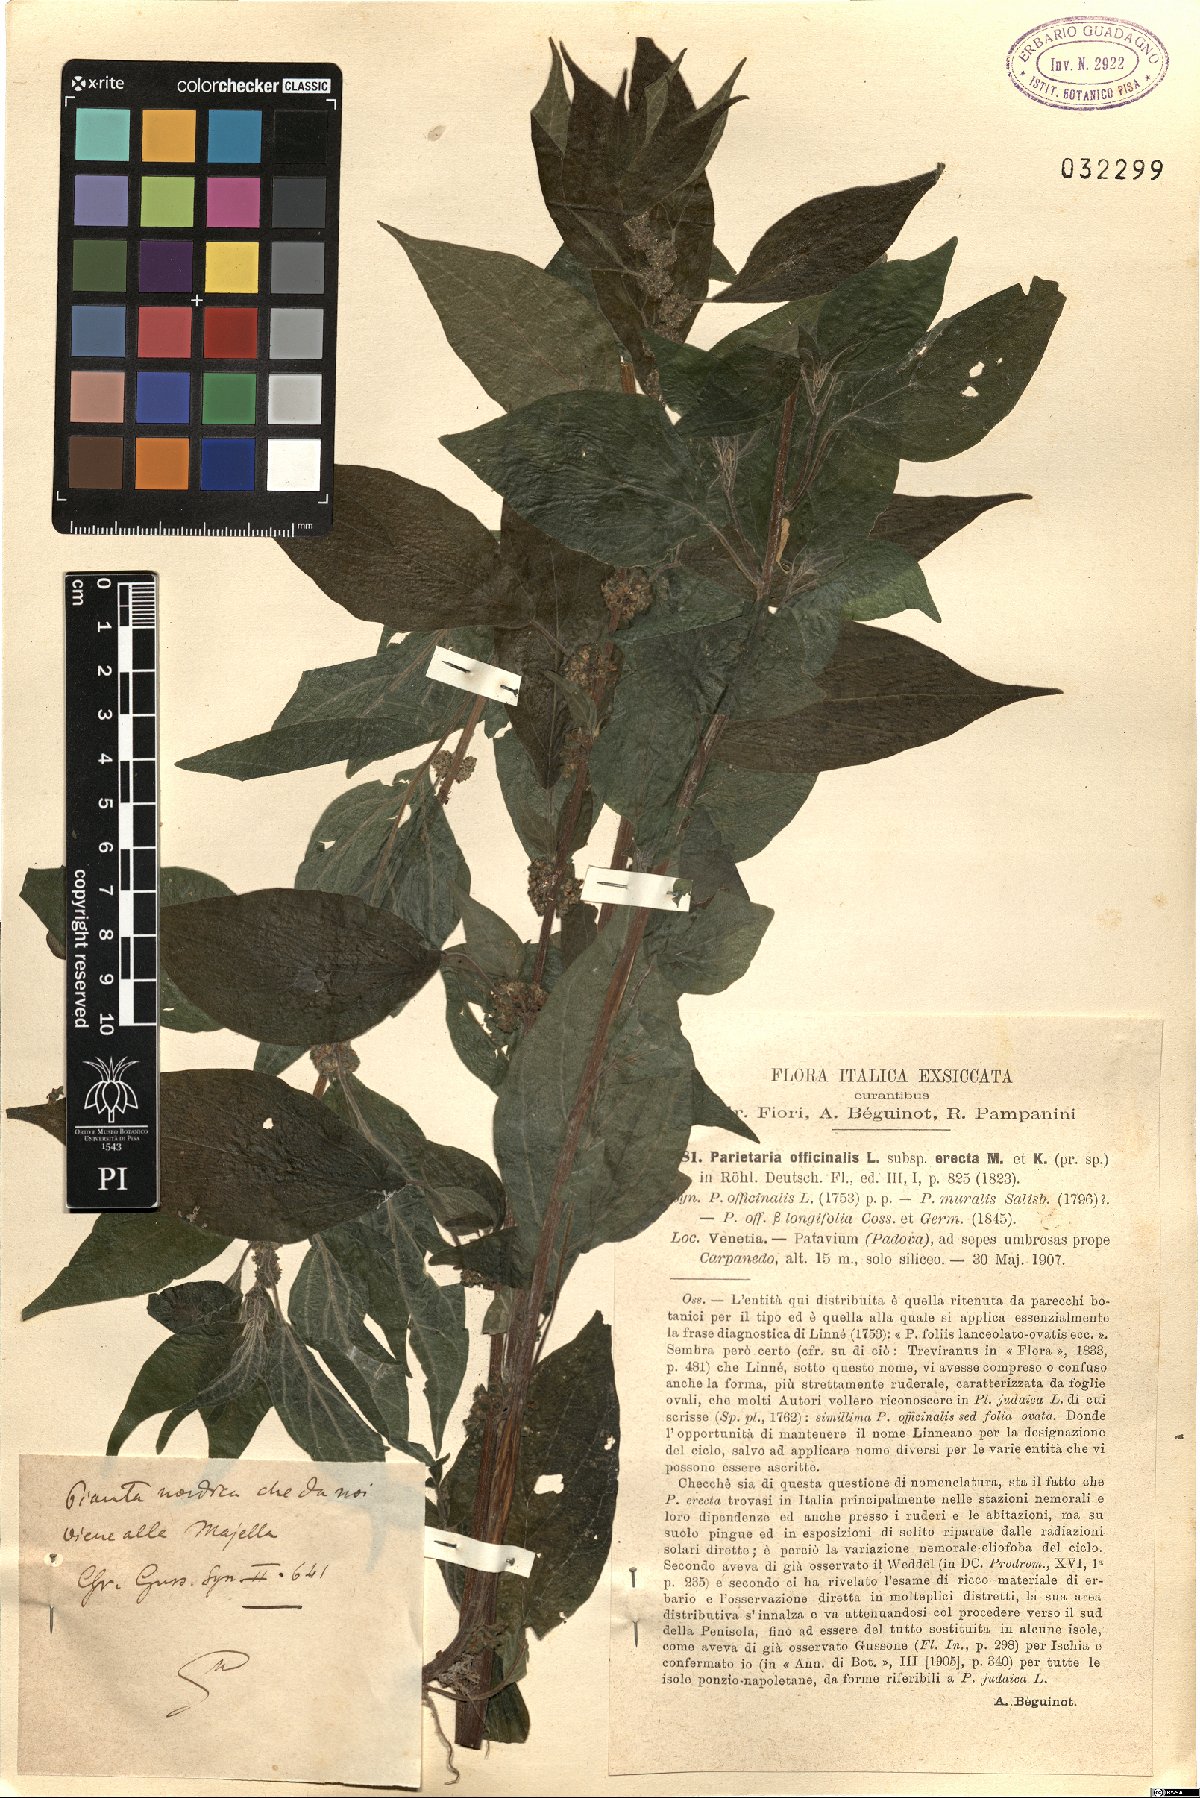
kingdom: Plantae
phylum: Tracheophyta
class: Magnoliopsida
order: Rosales
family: Urticaceae
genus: Parietaria
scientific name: Parietaria officinalis
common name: Eastern pellitory-of-the-wall
